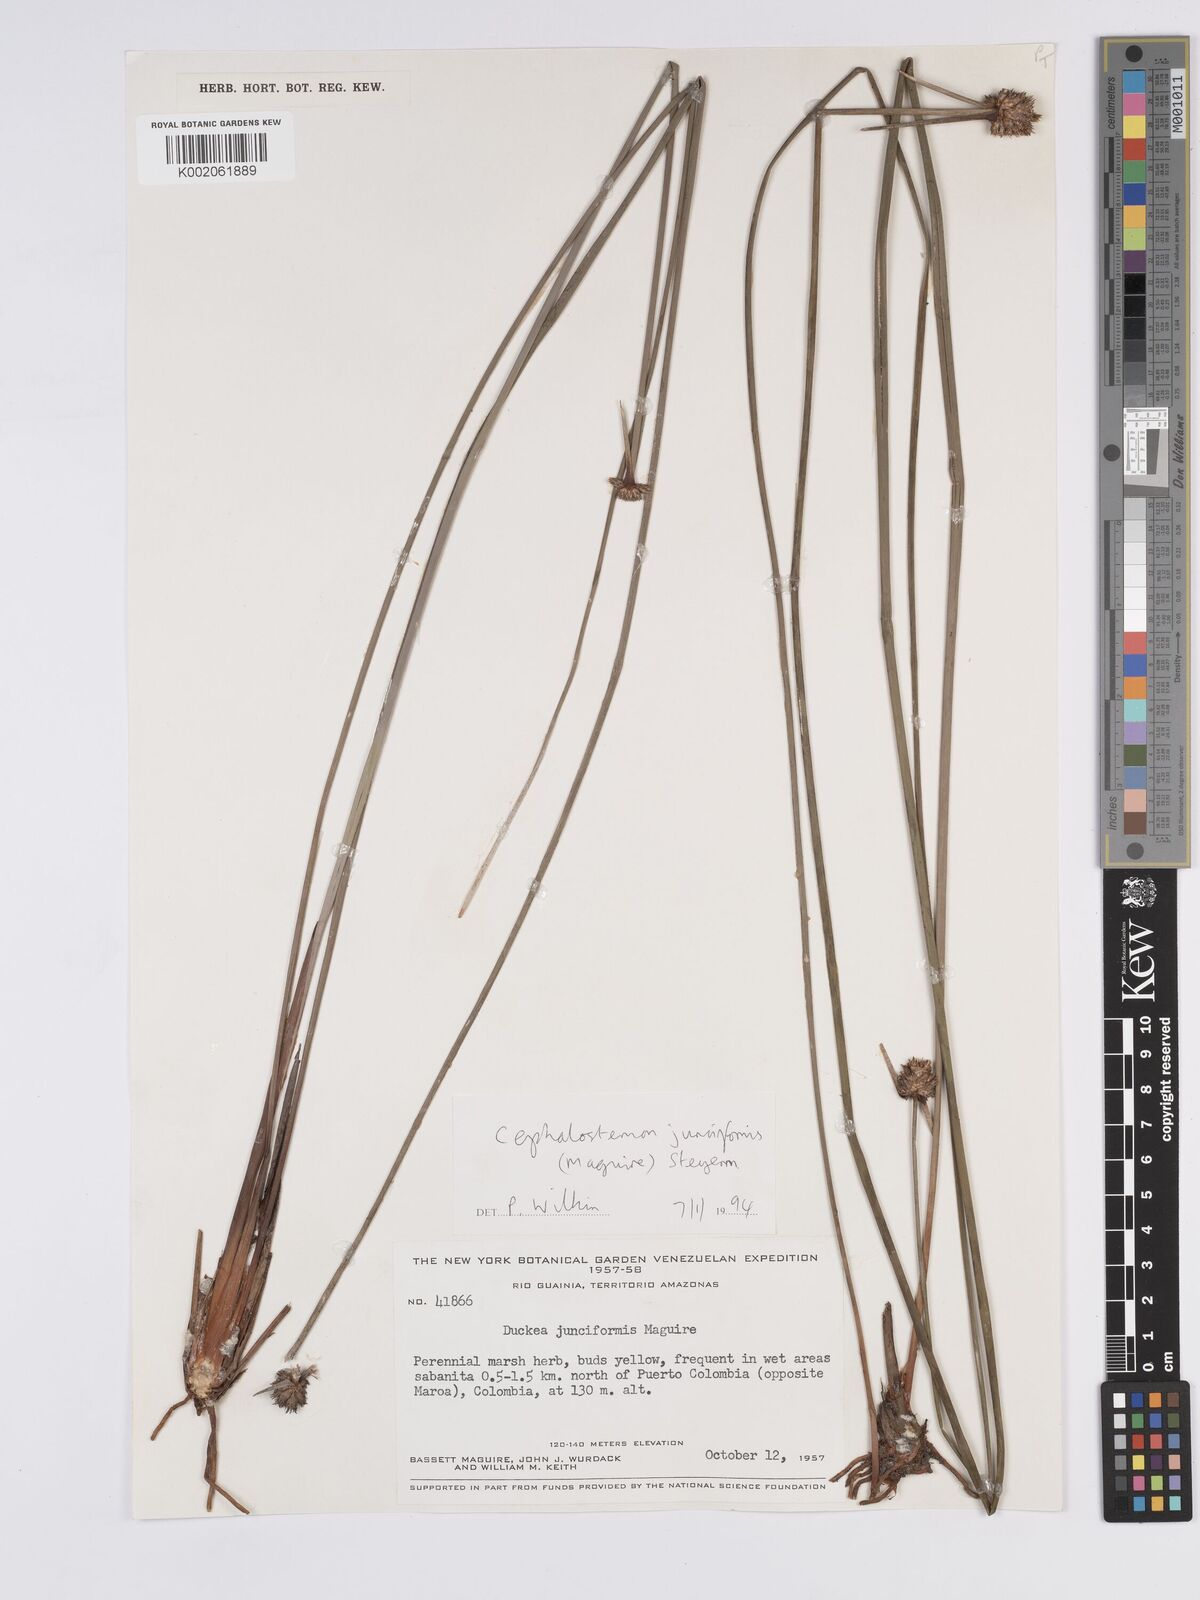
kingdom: Plantae
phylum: Tracheophyta
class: Liliopsida
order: Poales
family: Rapateaceae
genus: Duckea
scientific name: Duckea junciformis
